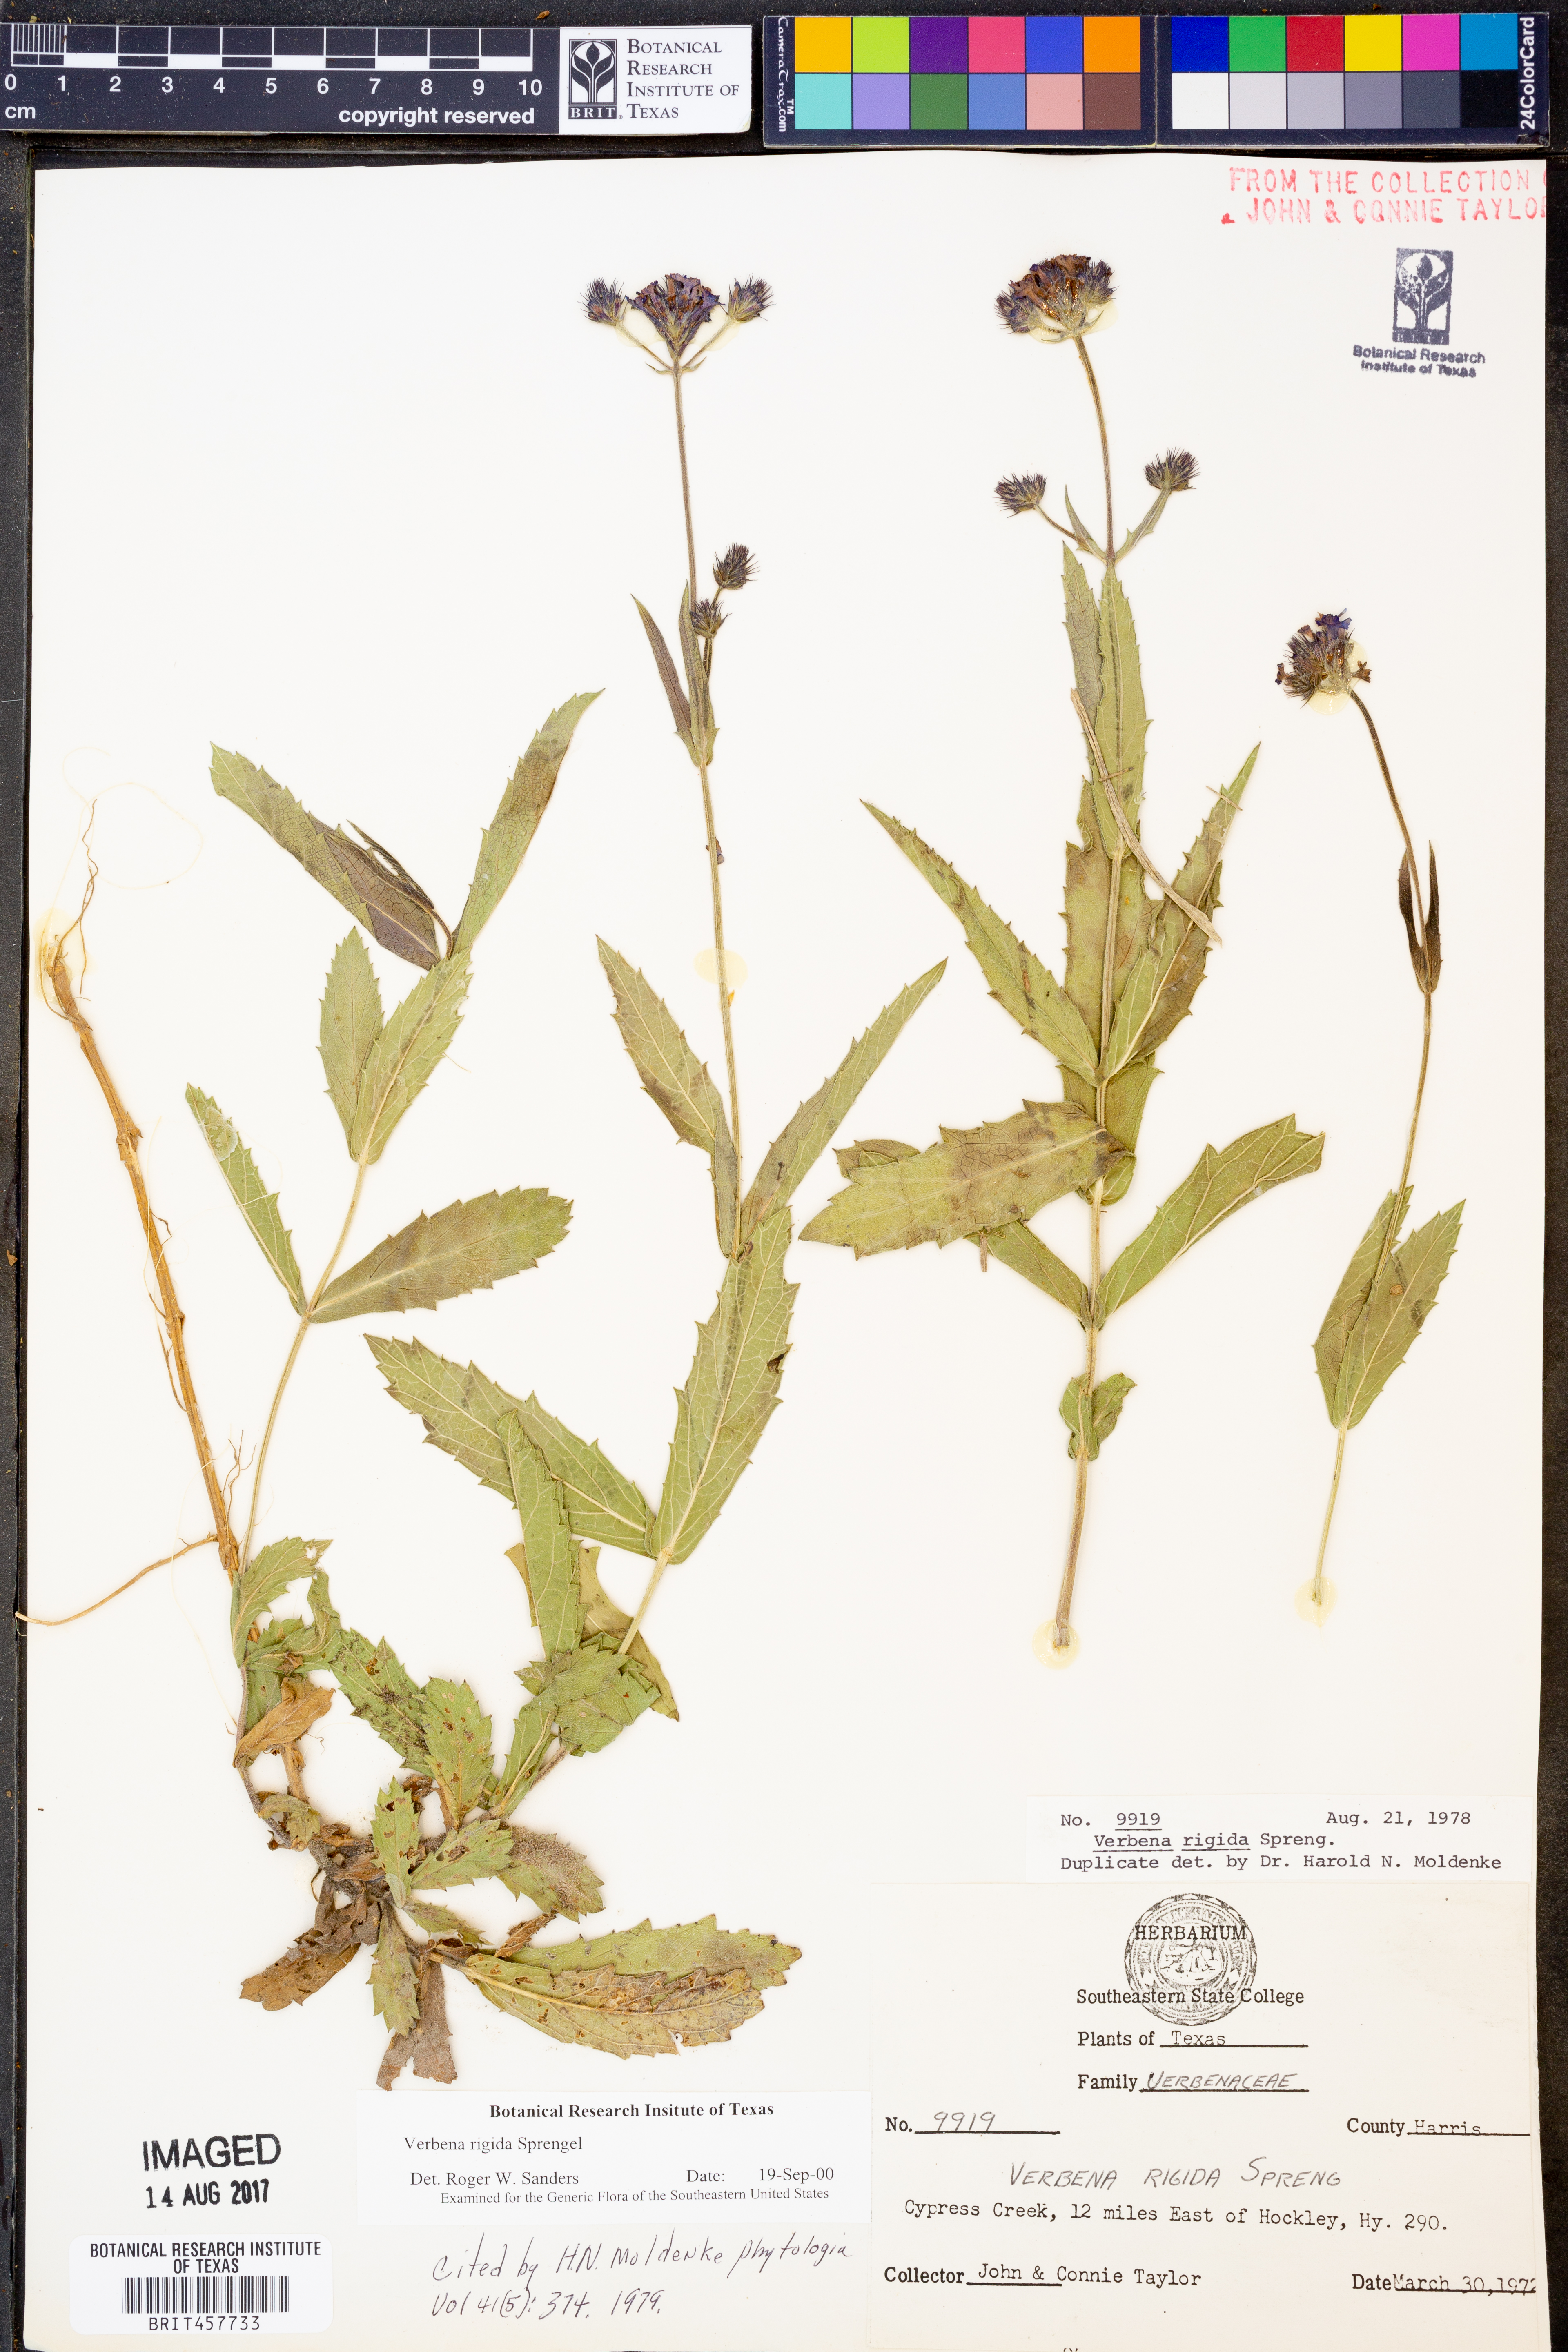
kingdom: Plantae
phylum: Tracheophyta
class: Magnoliopsida
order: Lamiales
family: Verbenaceae
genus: Verbena
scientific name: Verbena rigida
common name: Slender vervain
